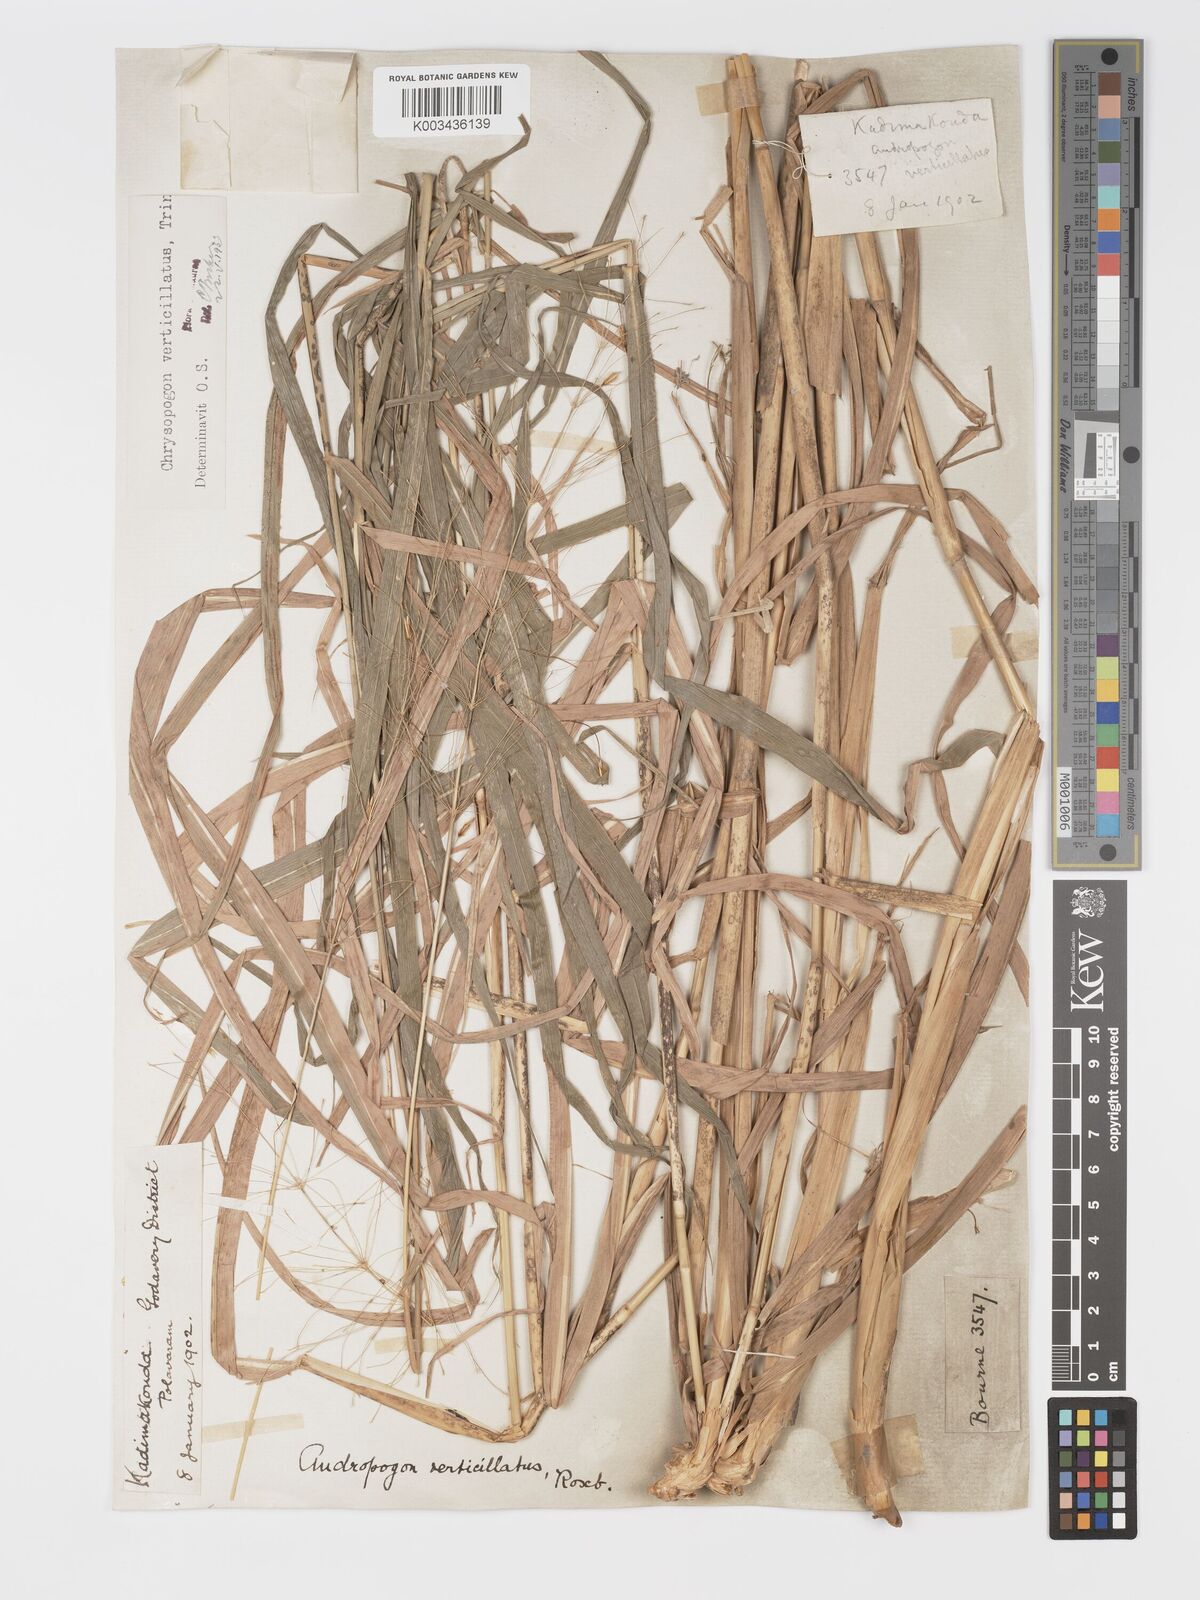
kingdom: Plantae
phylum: Tracheophyta
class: Liliopsida
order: Poales
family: Poaceae
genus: Chrysopogon
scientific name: Chrysopogon verticillatus
